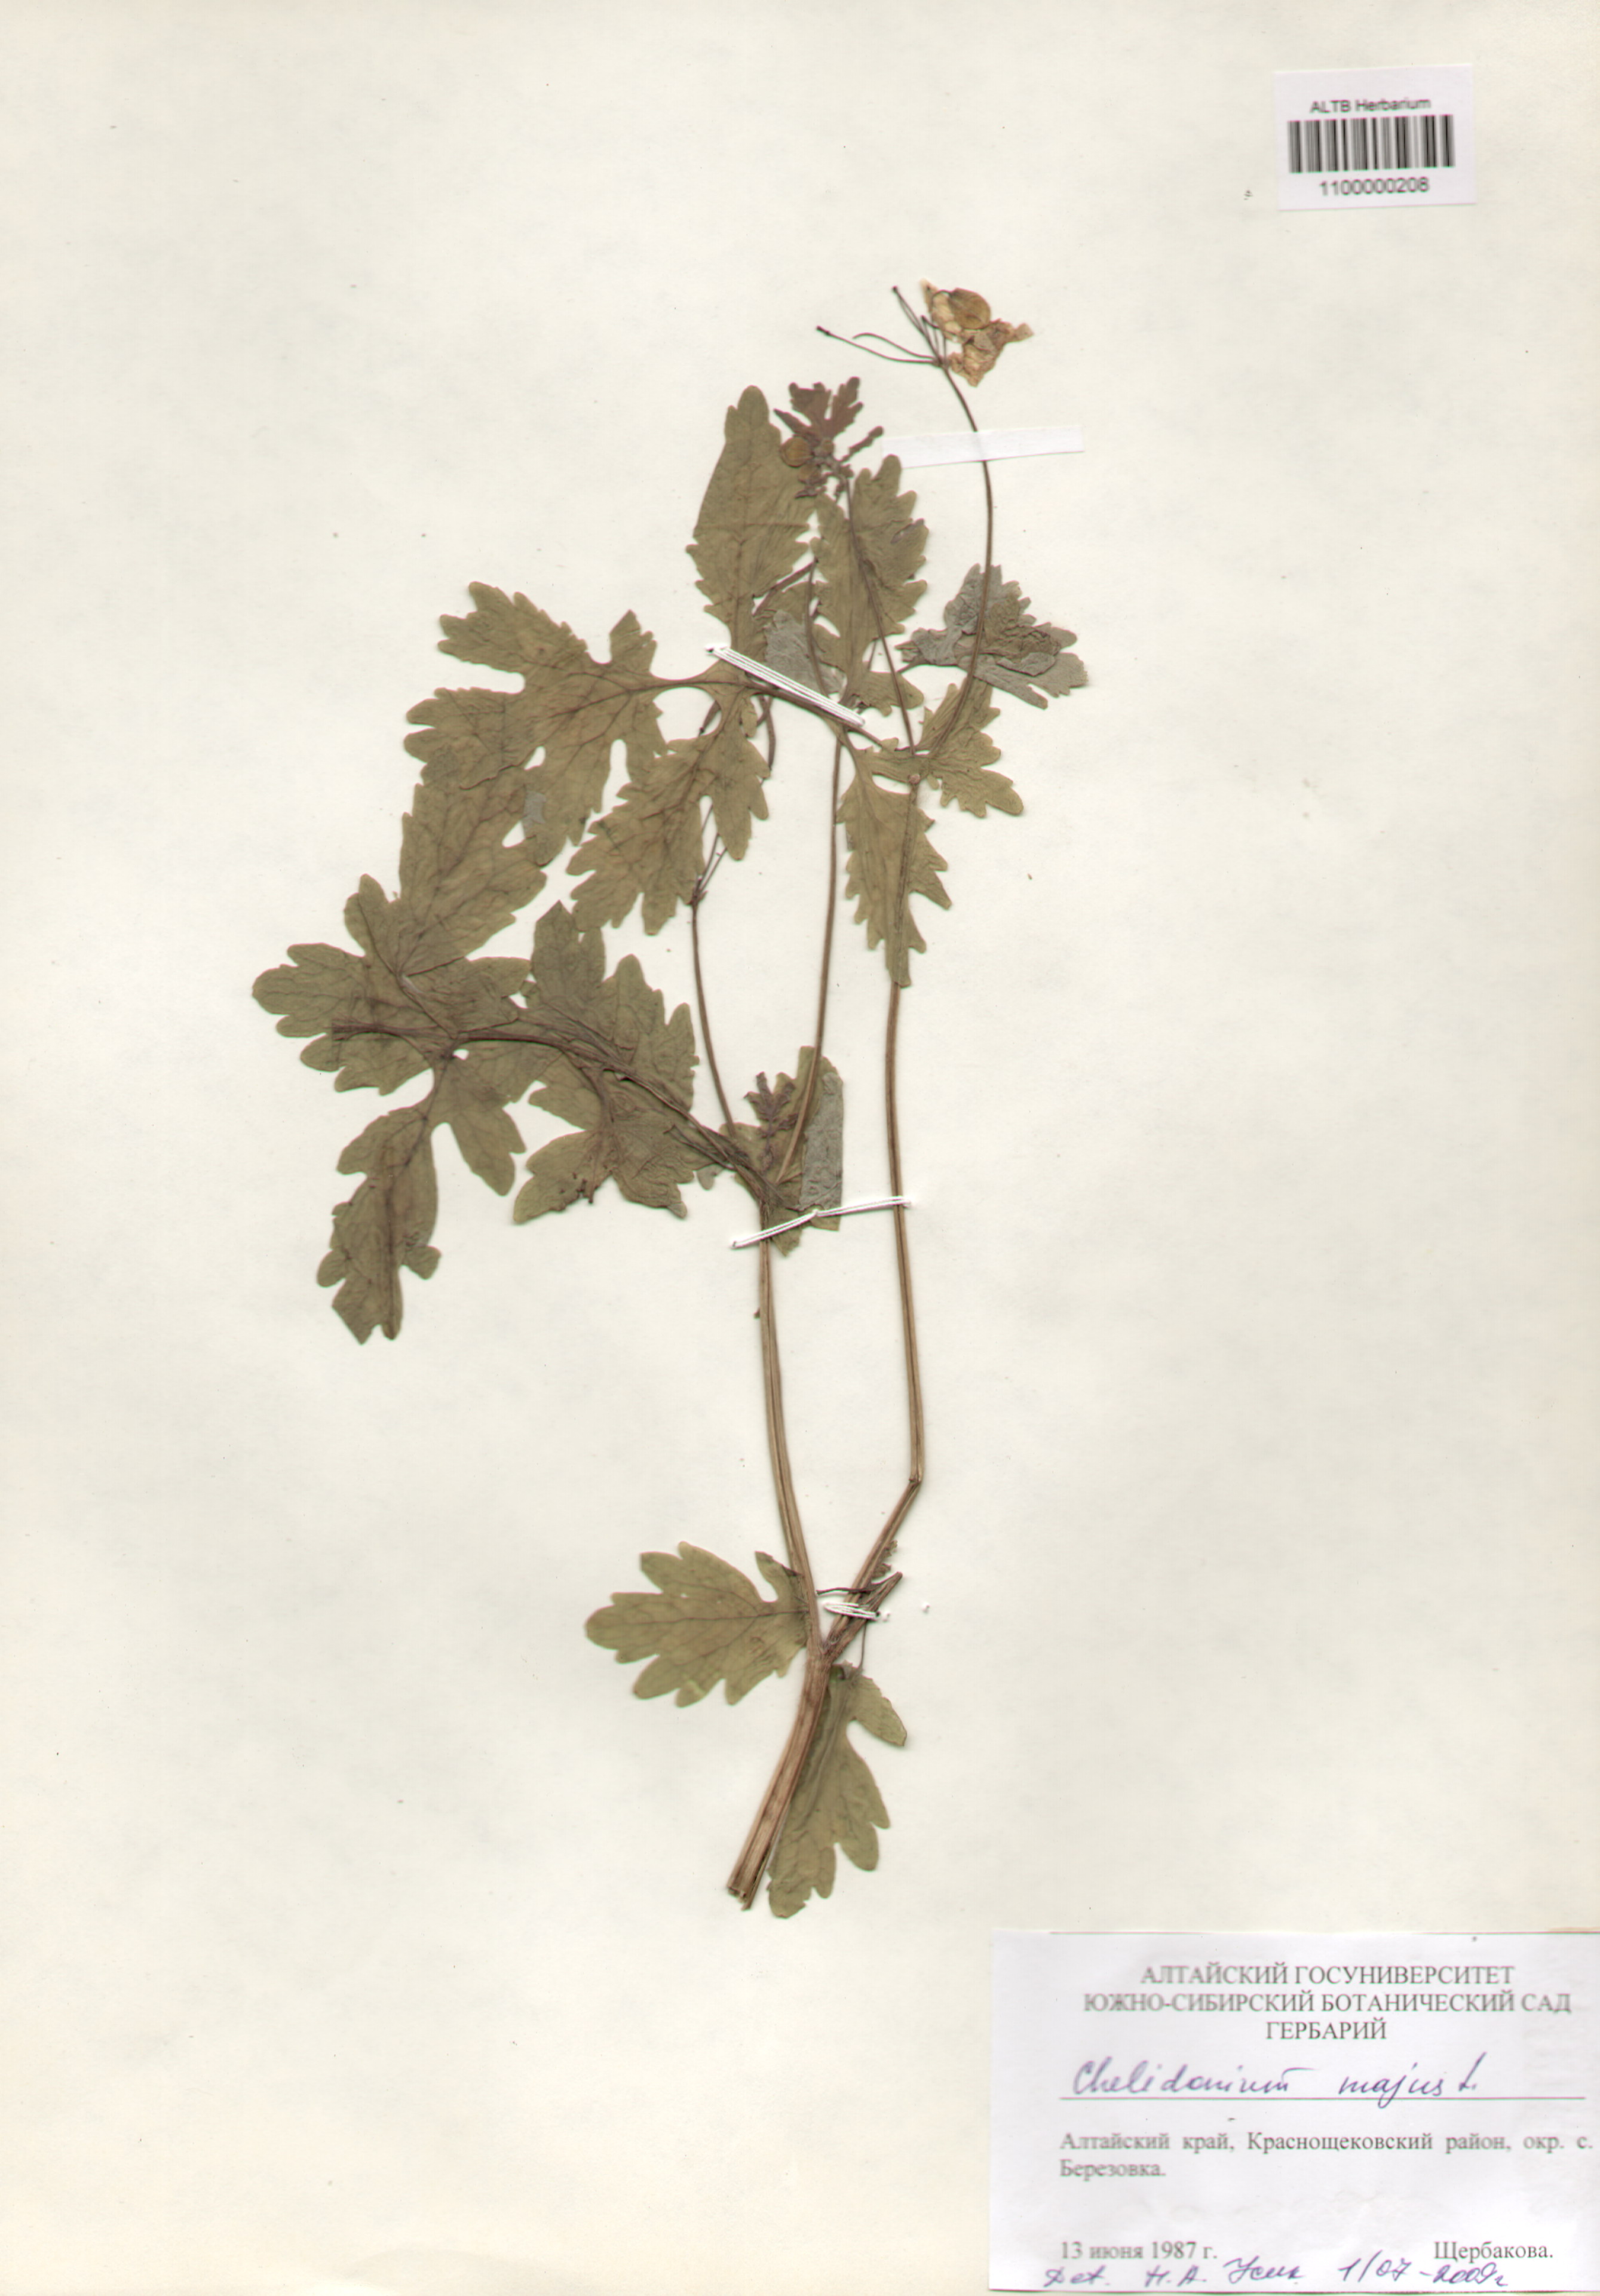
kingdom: Plantae
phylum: Tracheophyta
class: Magnoliopsida
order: Ranunculales
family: Papaveraceae
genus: Chelidonium
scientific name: Chelidonium majus
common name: Greater celandine
